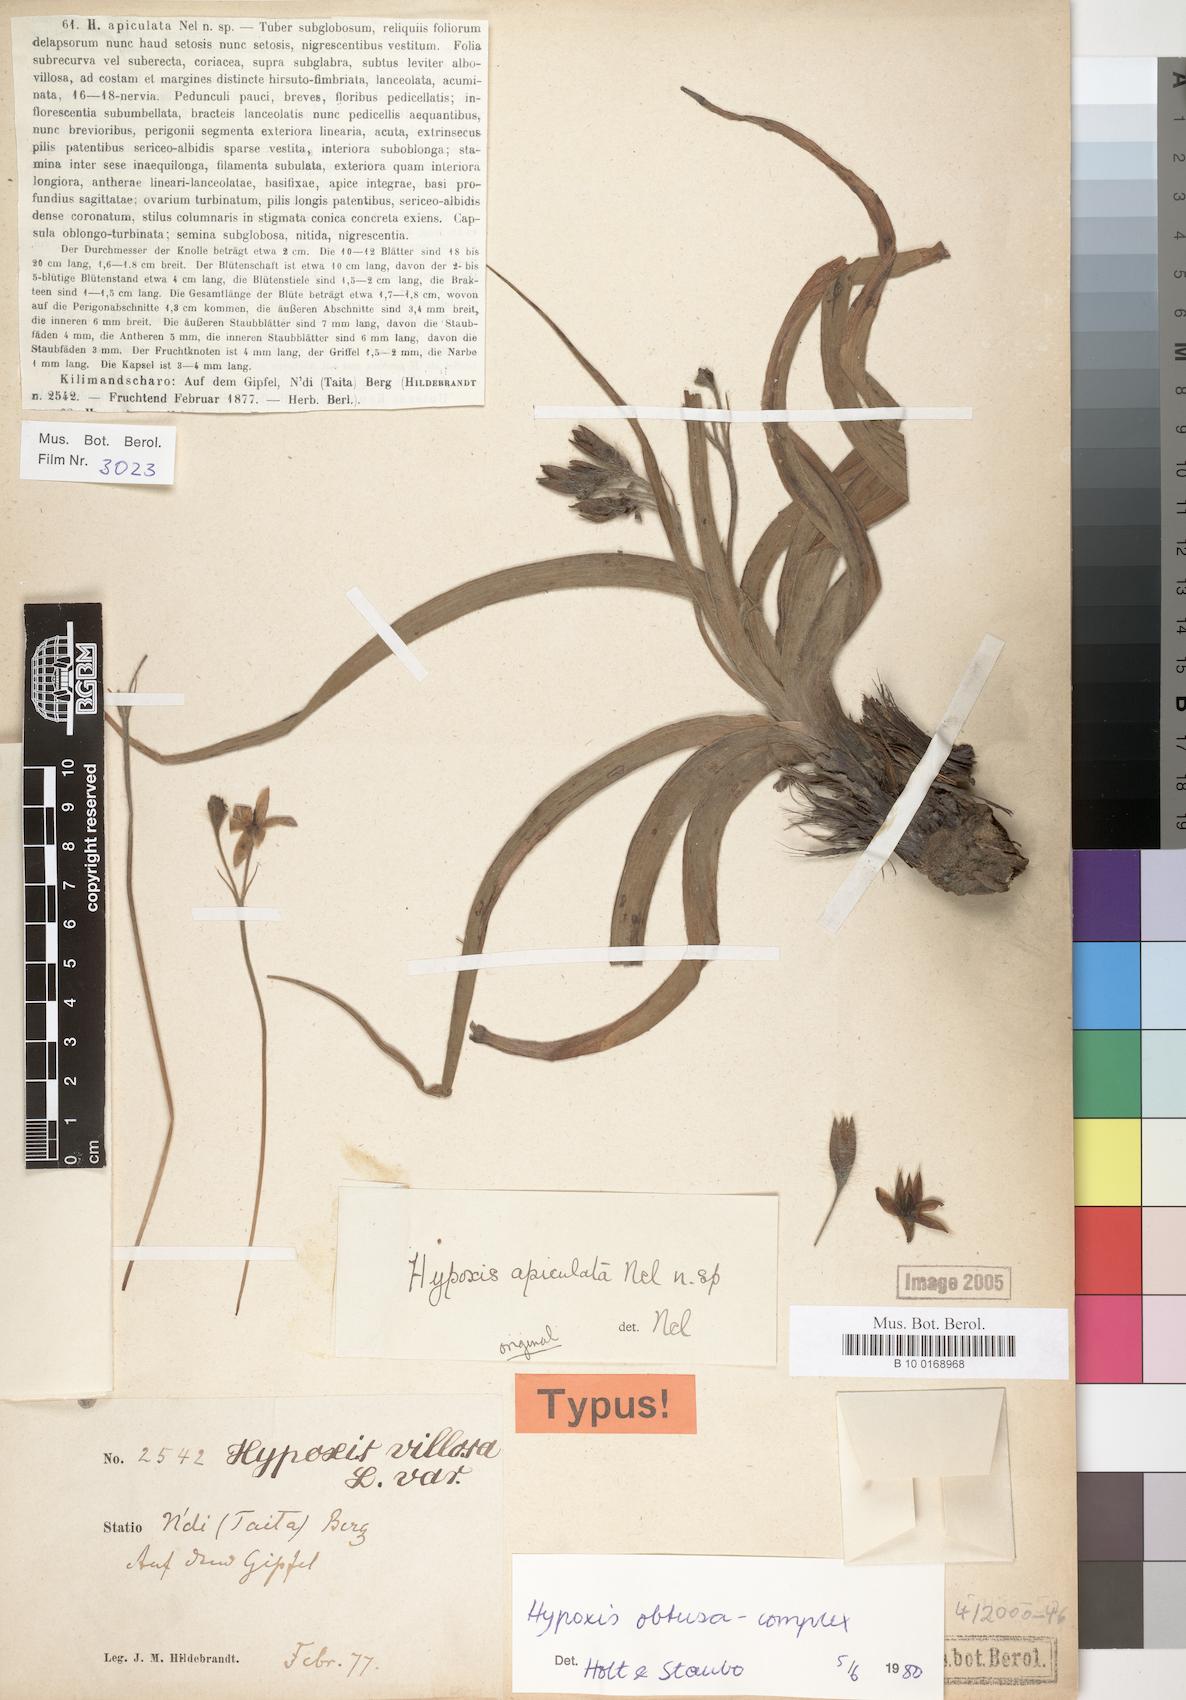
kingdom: Plantae
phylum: Tracheophyta
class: Liliopsida
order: Asparagales
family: Hypoxidaceae
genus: Hypoxis
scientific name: Hypoxis
